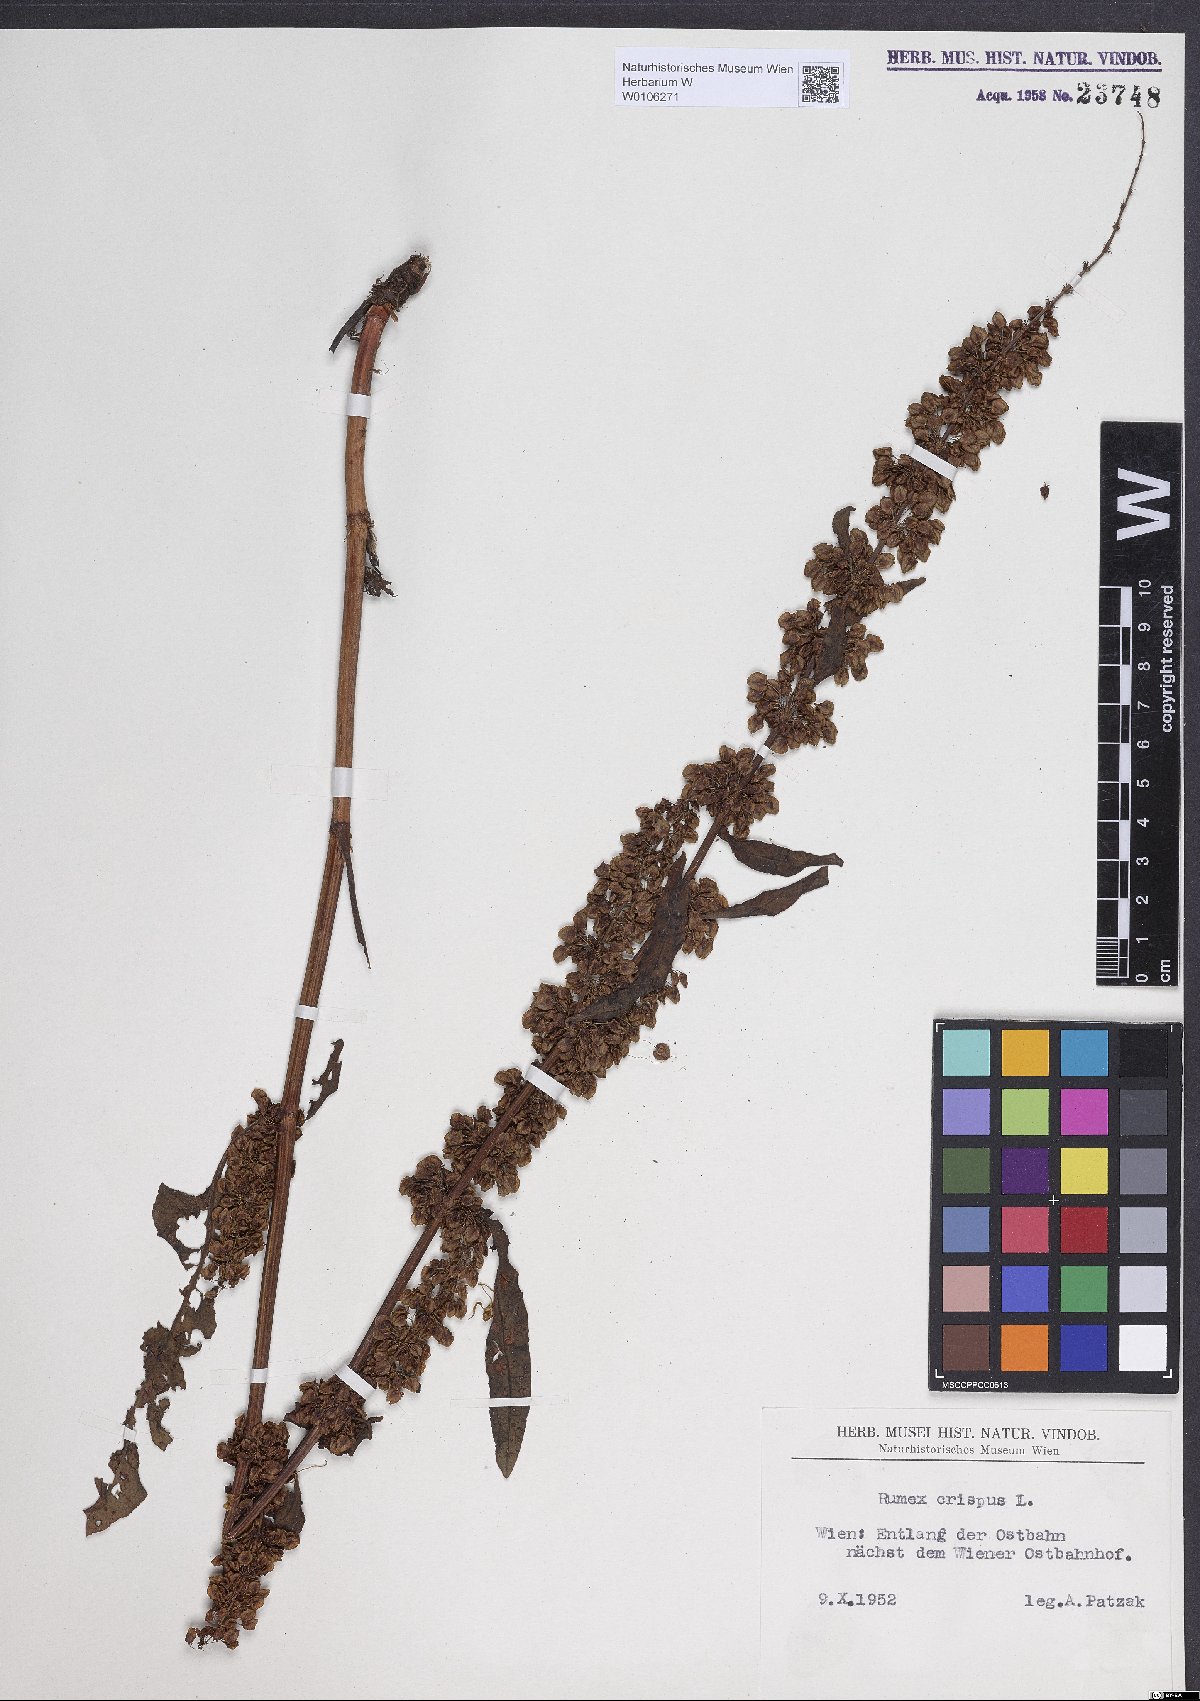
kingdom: Plantae
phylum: Tracheophyta
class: Magnoliopsida
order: Caryophyllales
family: Polygonaceae
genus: Rumex
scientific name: Rumex crispus
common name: Curled dock
